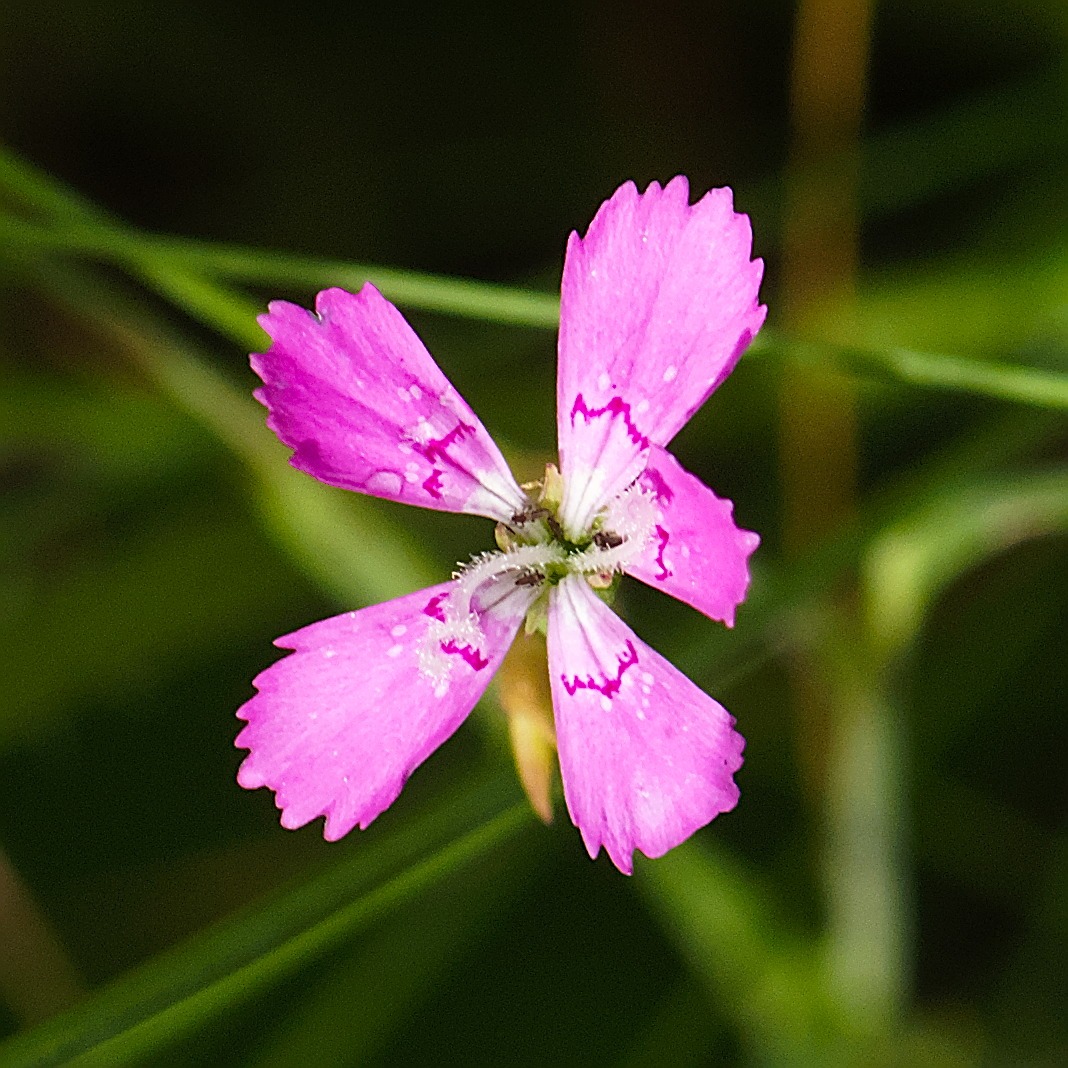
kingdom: Plantae
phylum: Tracheophyta
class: Magnoliopsida
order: Caryophyllales
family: Caryophyllaceae
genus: Dianthus
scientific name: Dianthus deltoides
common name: Bakke-nellike
